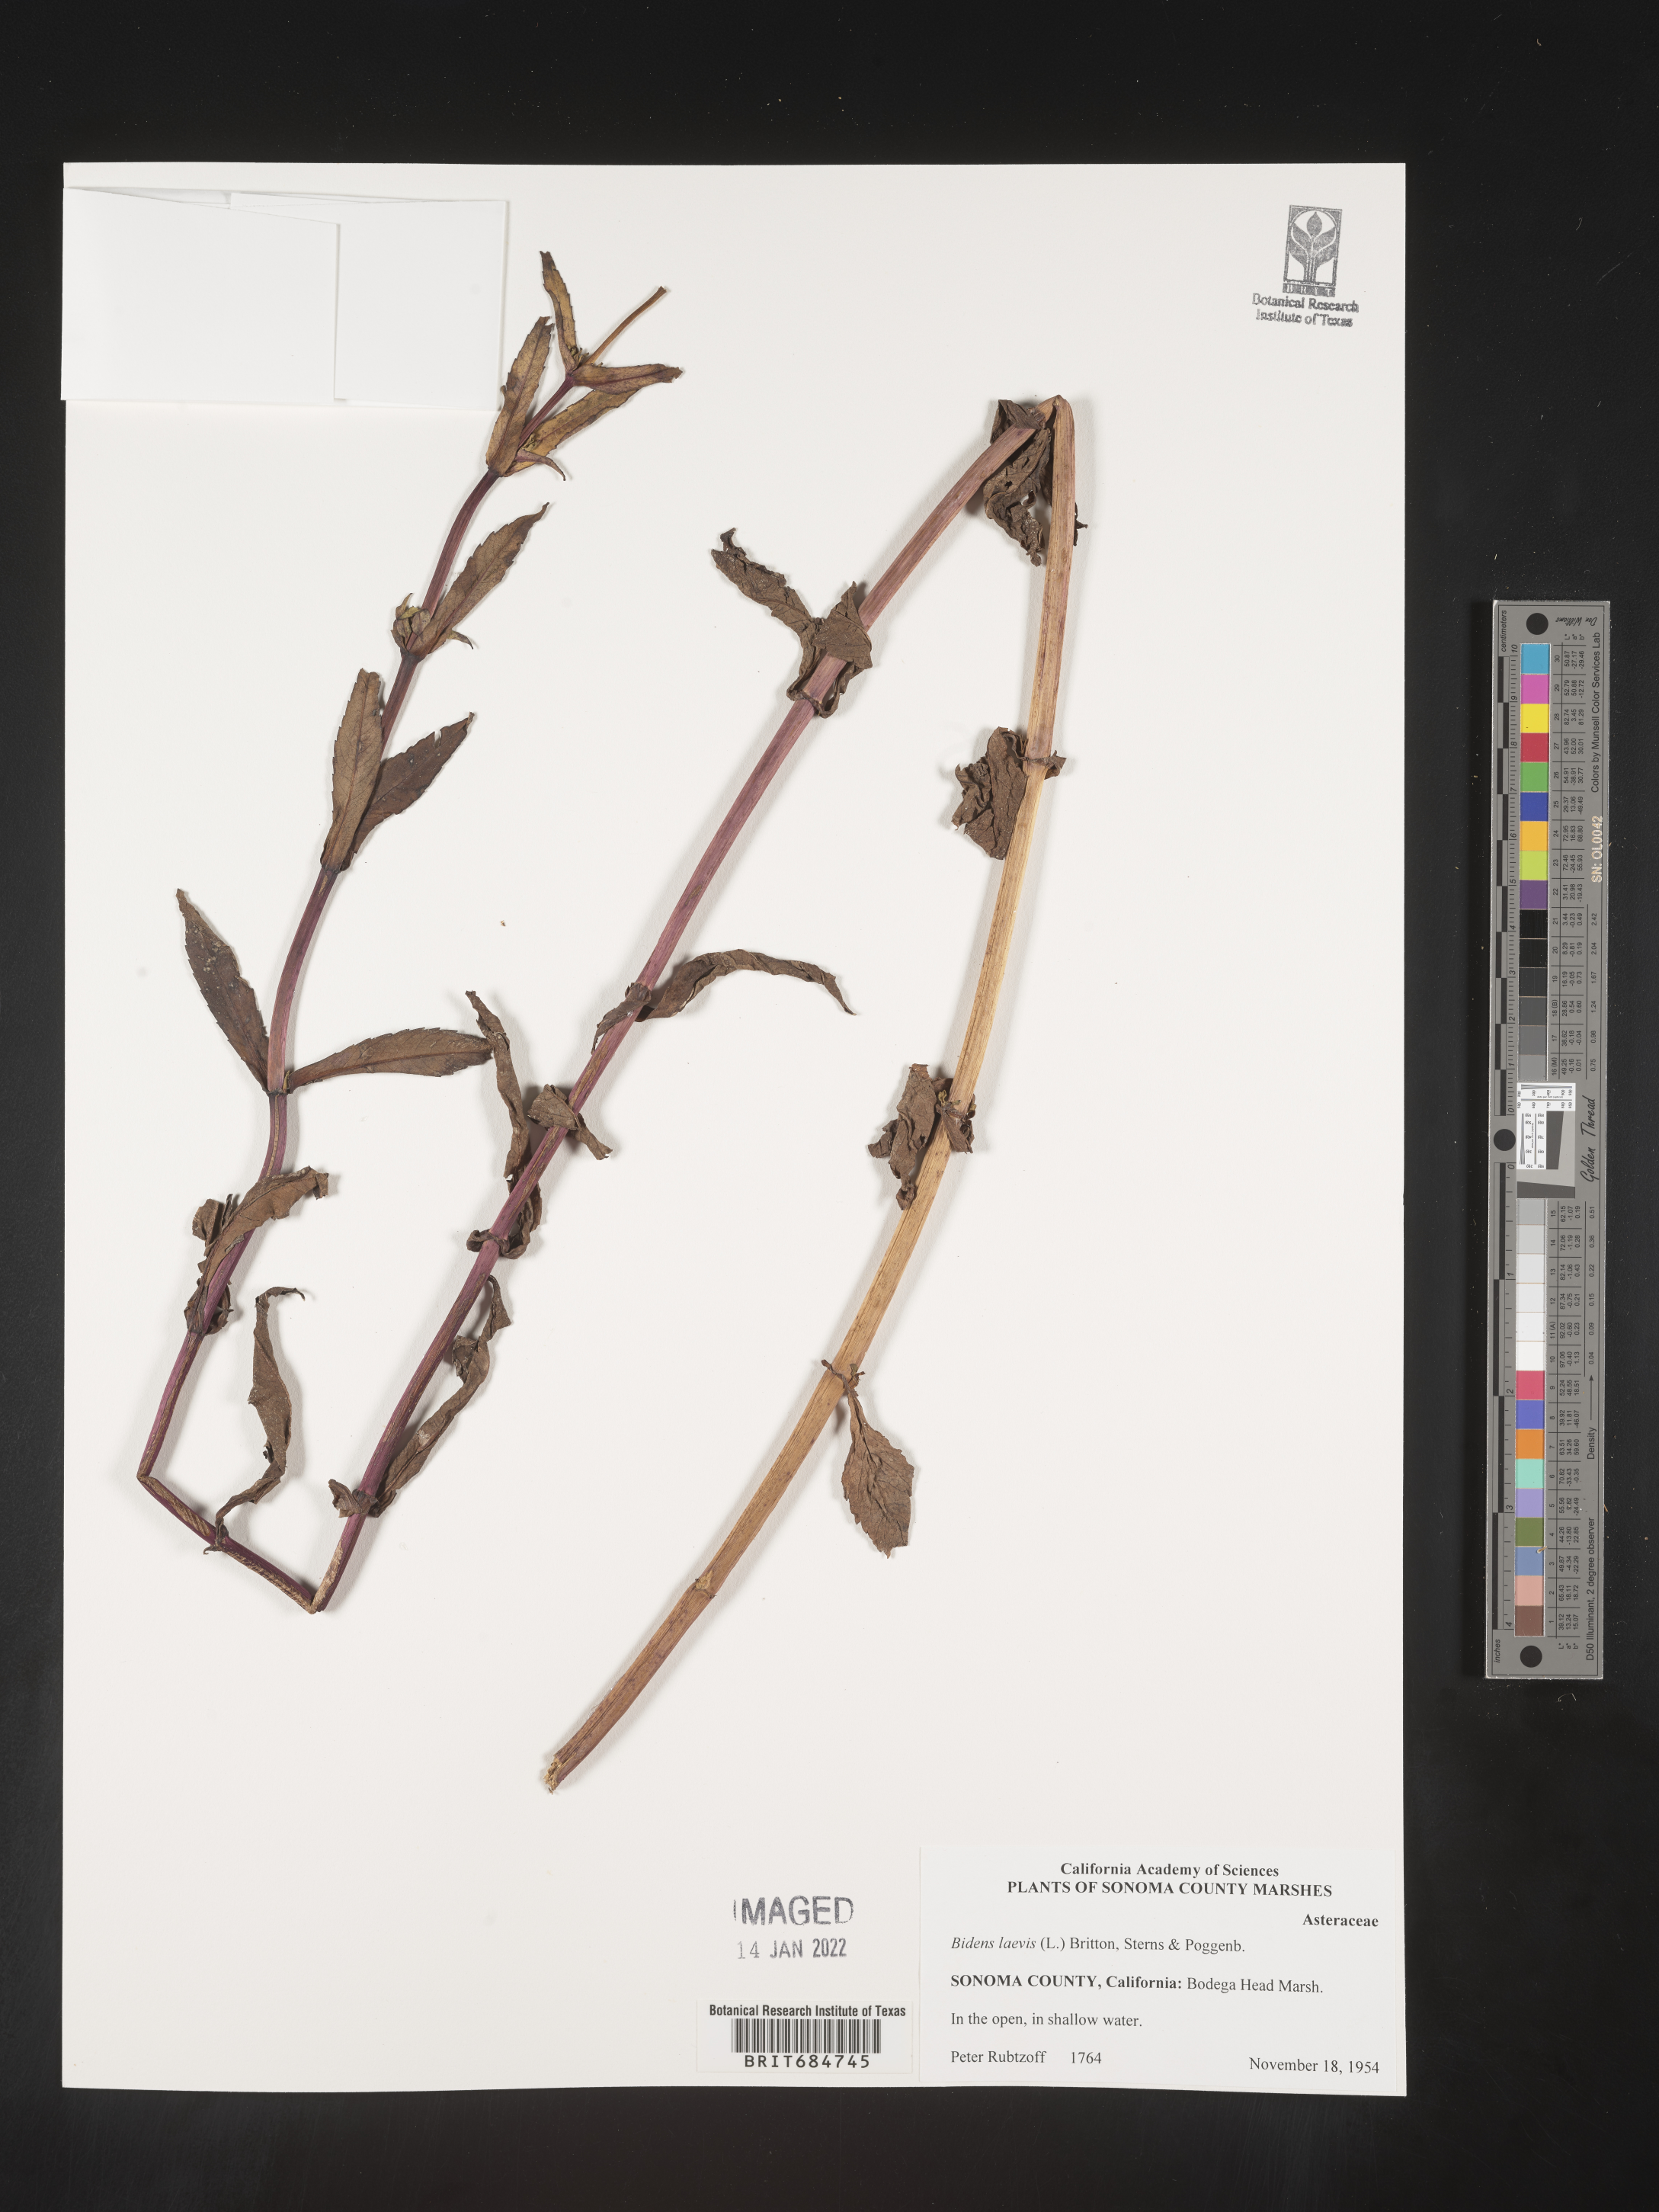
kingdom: Plantae
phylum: Tracheophyta
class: Magnoliopsida
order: Asterales
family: Asteraceae
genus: Bidens
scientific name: Bidens laevis
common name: Larger bur-marigold
